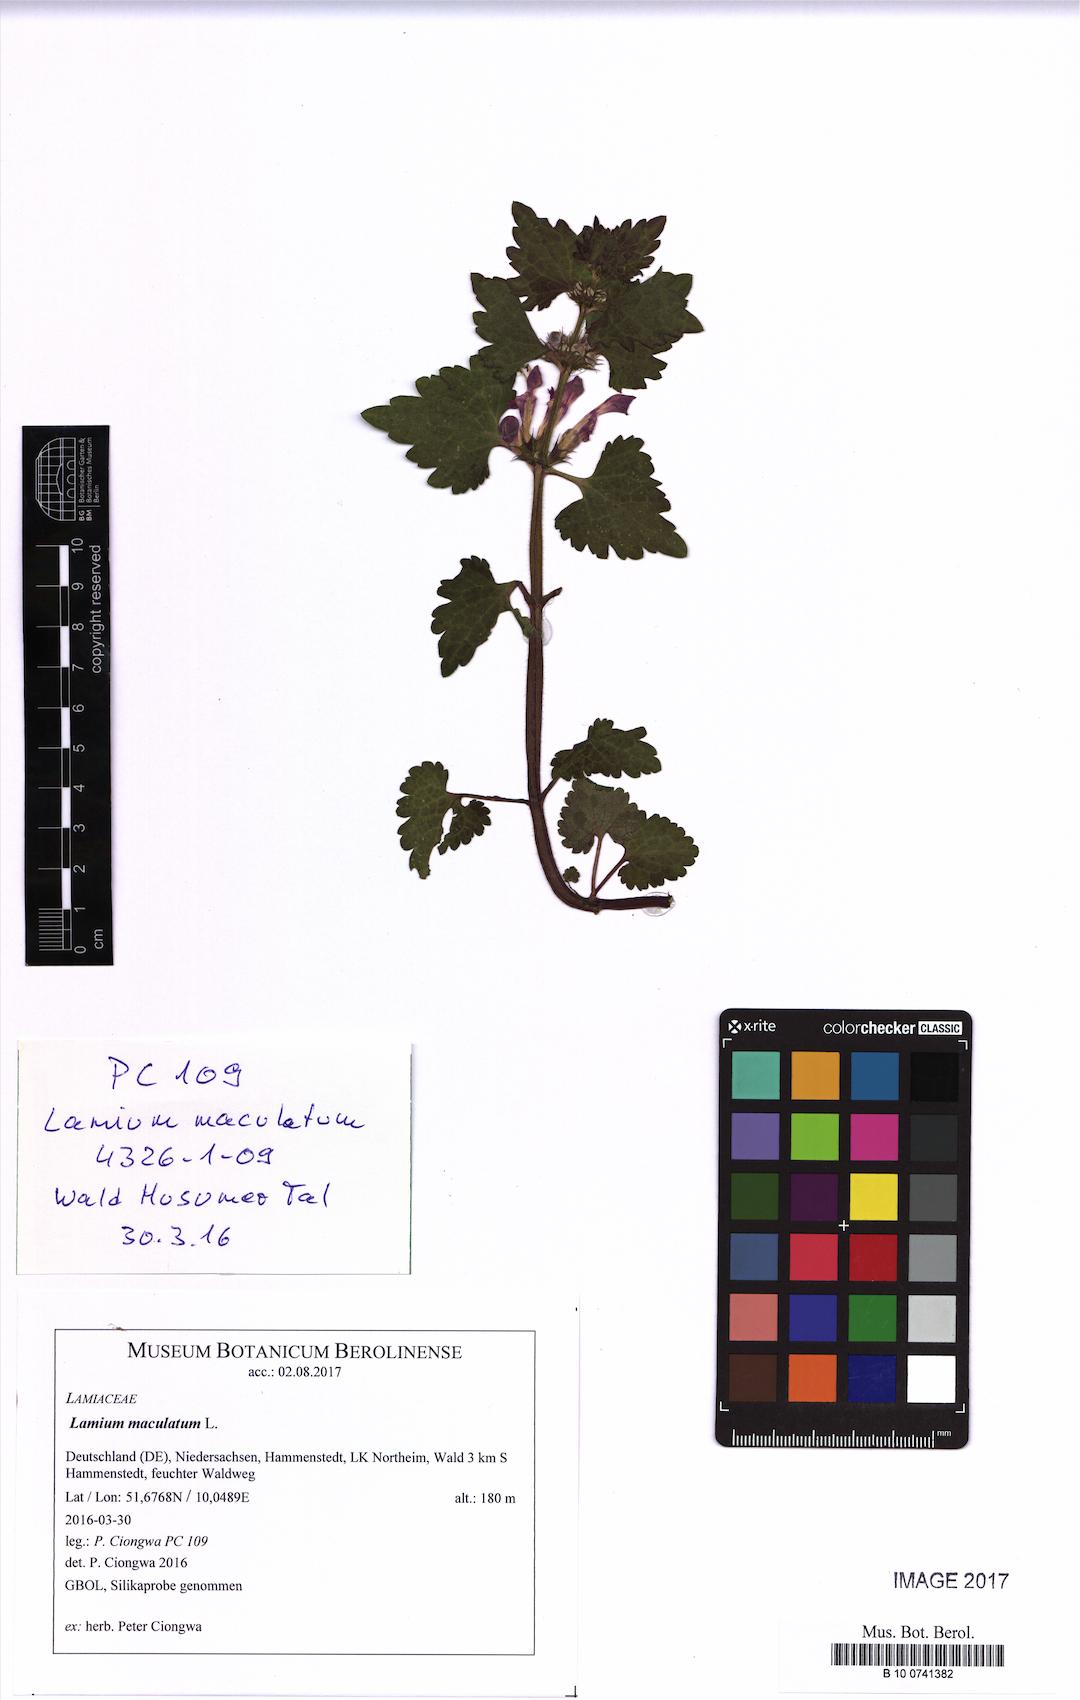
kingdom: Plantae
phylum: Tracheophyta
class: Magnoliopsida
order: Lamiales
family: Lamiaceae
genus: Lamium
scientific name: Lamium maculatum
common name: Spotted dead-nettle
